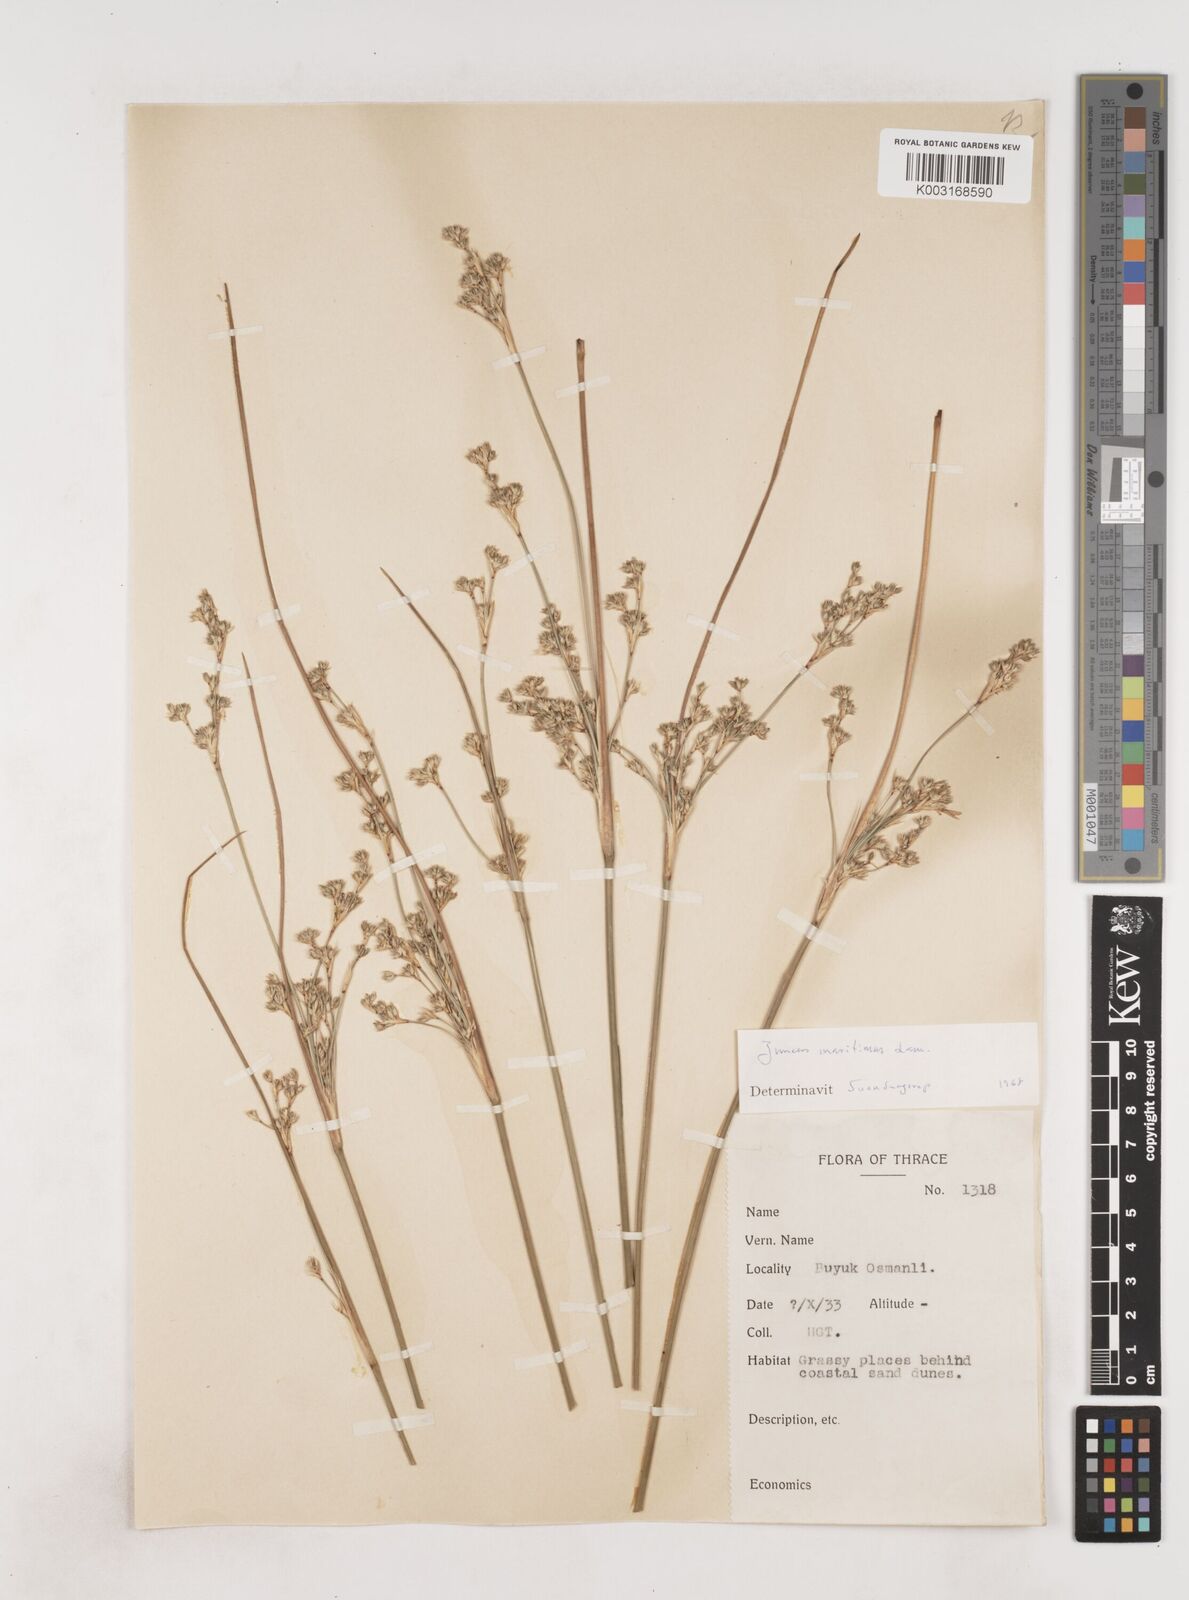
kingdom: Plantae
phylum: Tracheophyta
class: Liliopsida
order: Poales
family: Juncaceae
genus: Juncus
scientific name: Juncus maritimus
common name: Sea rush
